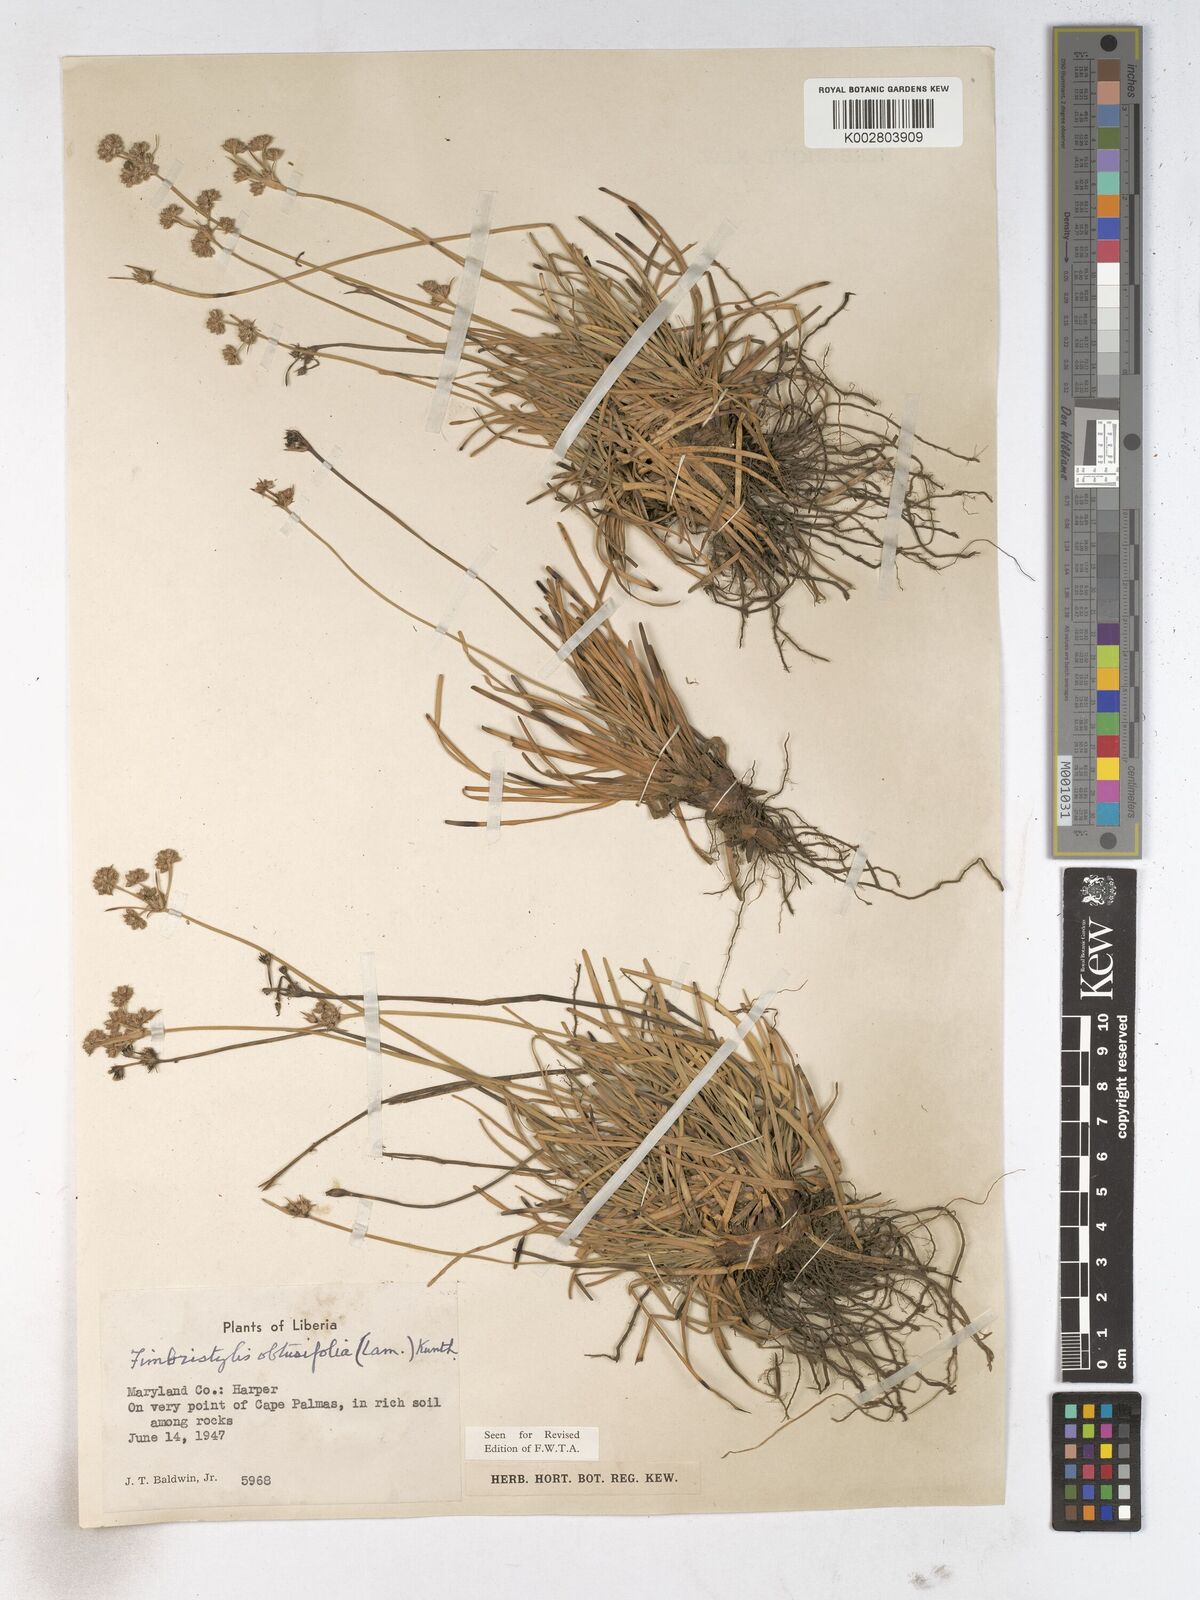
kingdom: Plantae
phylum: Tracheophyta
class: Liliopsida
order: Poales
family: Cyperaceae
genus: Fimbristylis
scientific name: Fimbristylis cymosa
